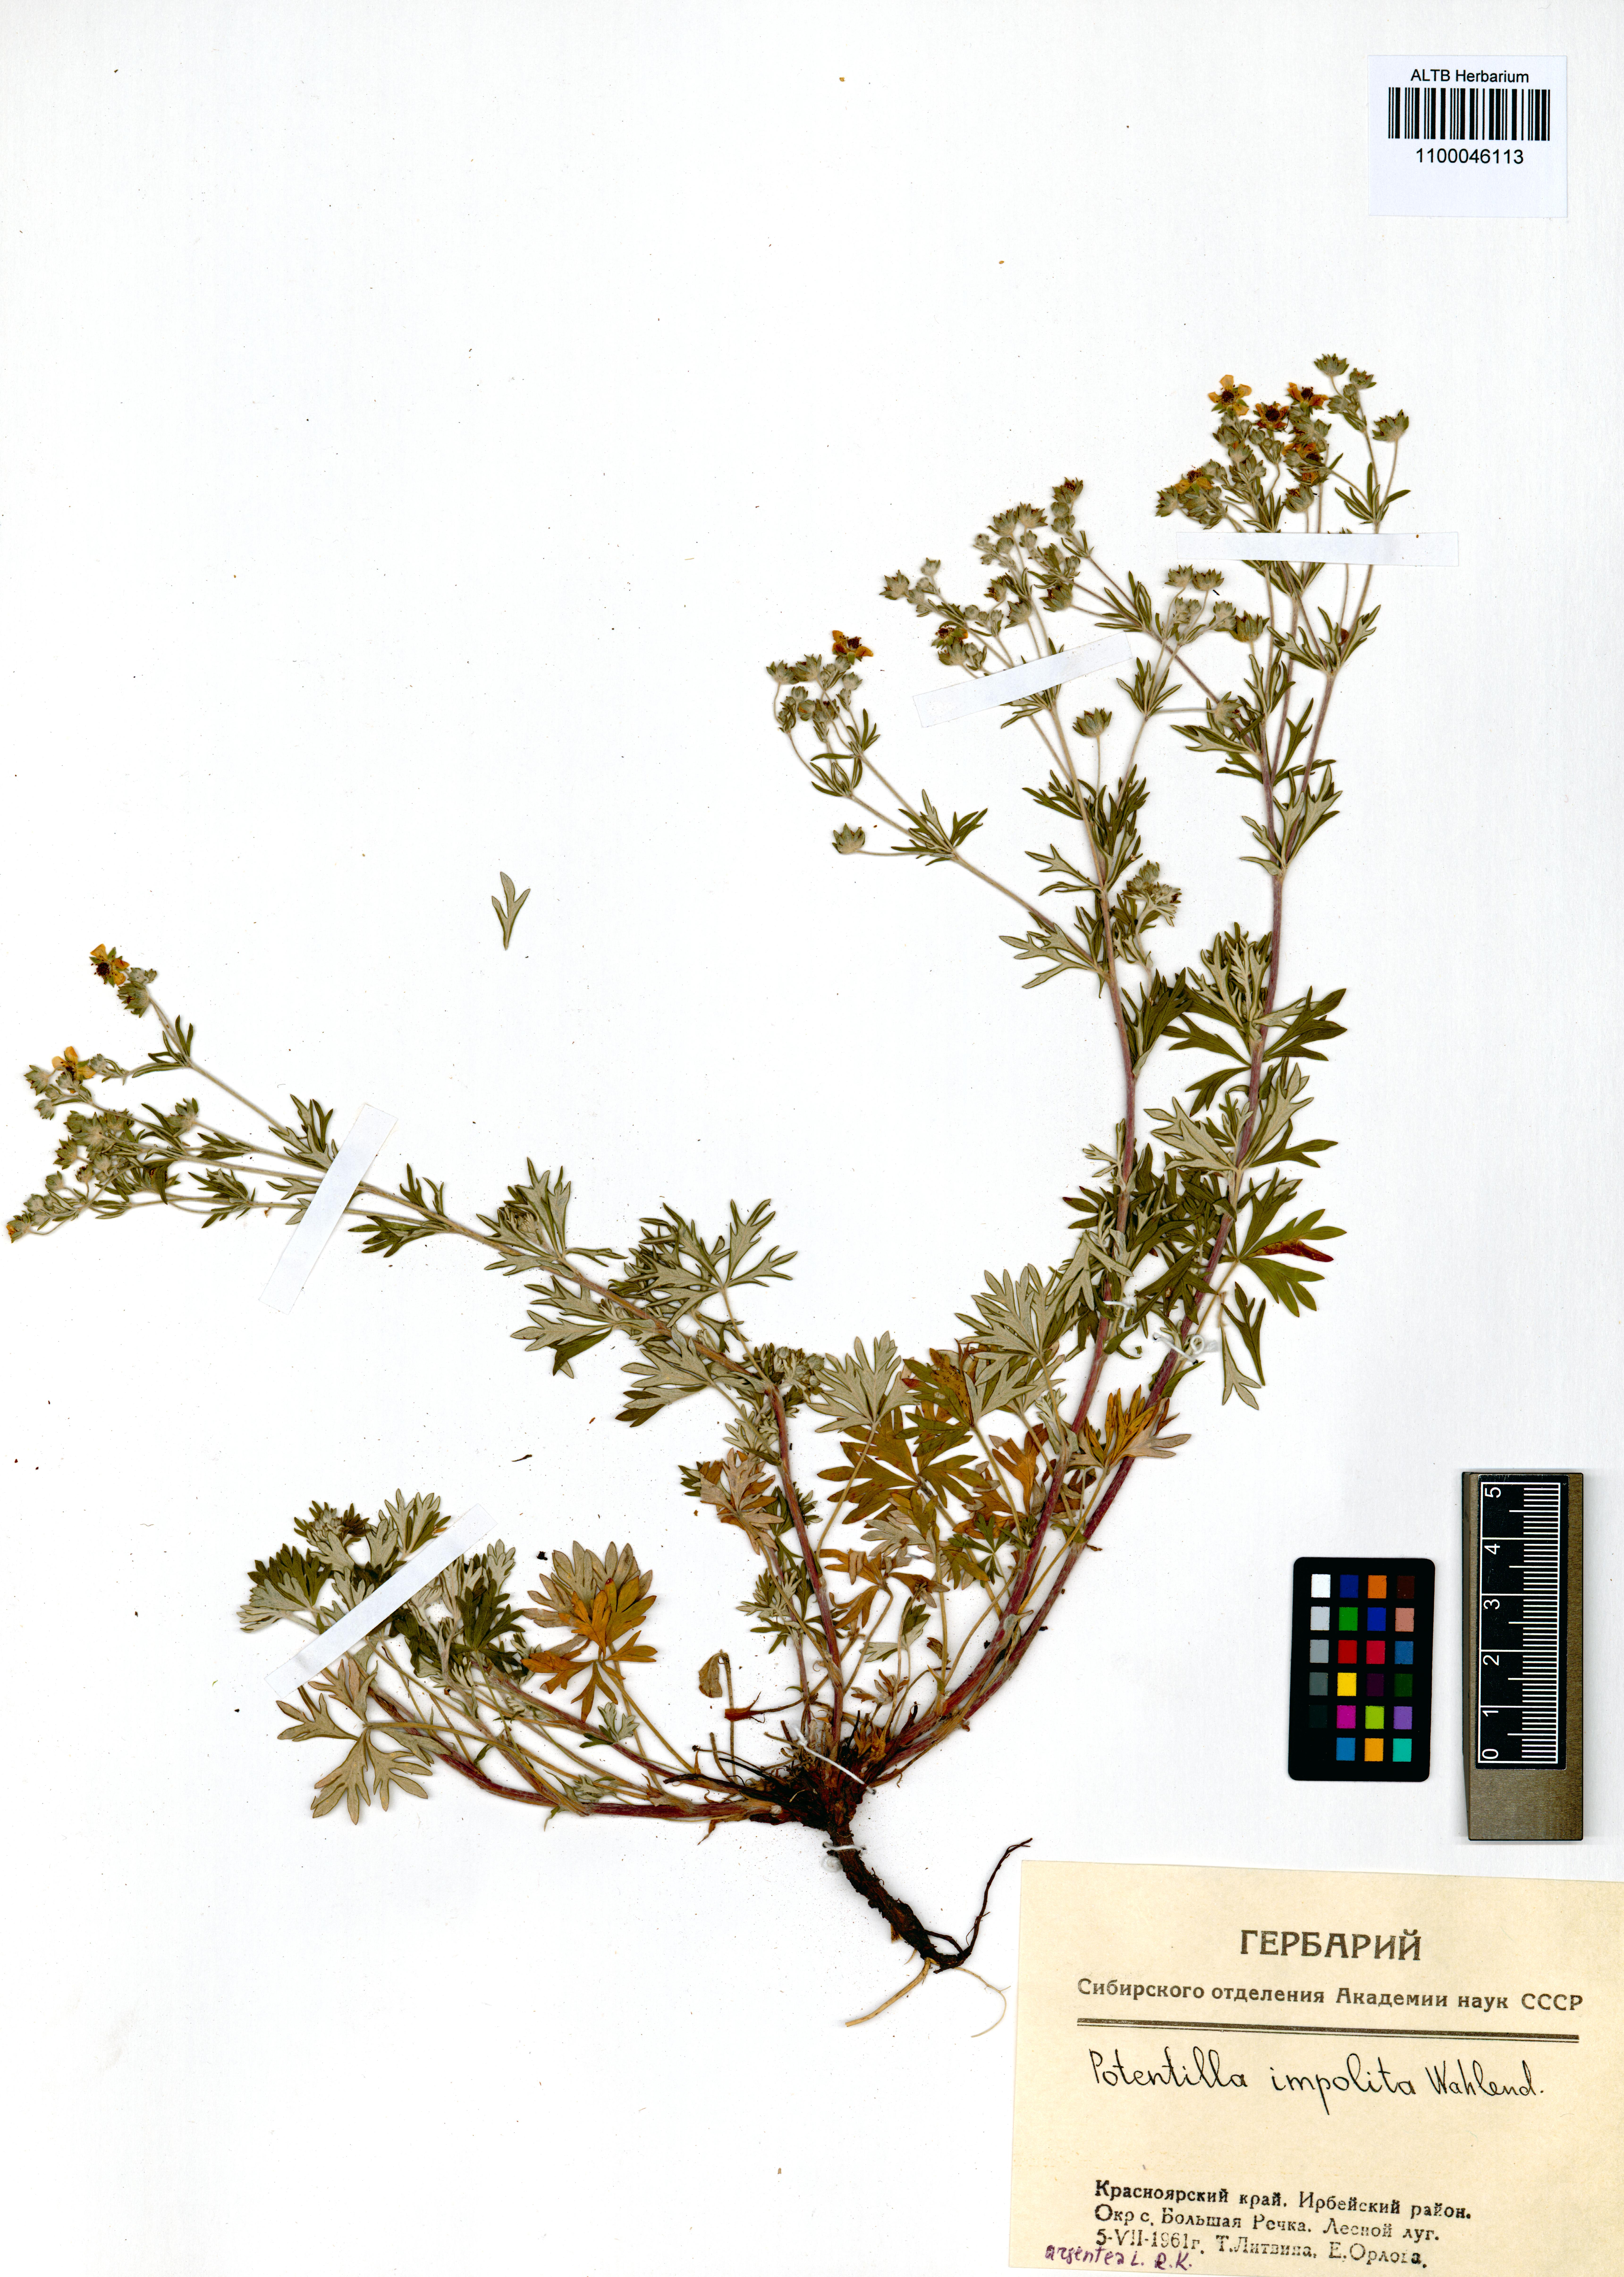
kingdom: Plantae
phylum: Tracheophyta
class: Magnoliopsida
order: Rosales
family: Rosaceae
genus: Potentilla
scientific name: Potentilla argentea
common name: Hoary cinquefoil
